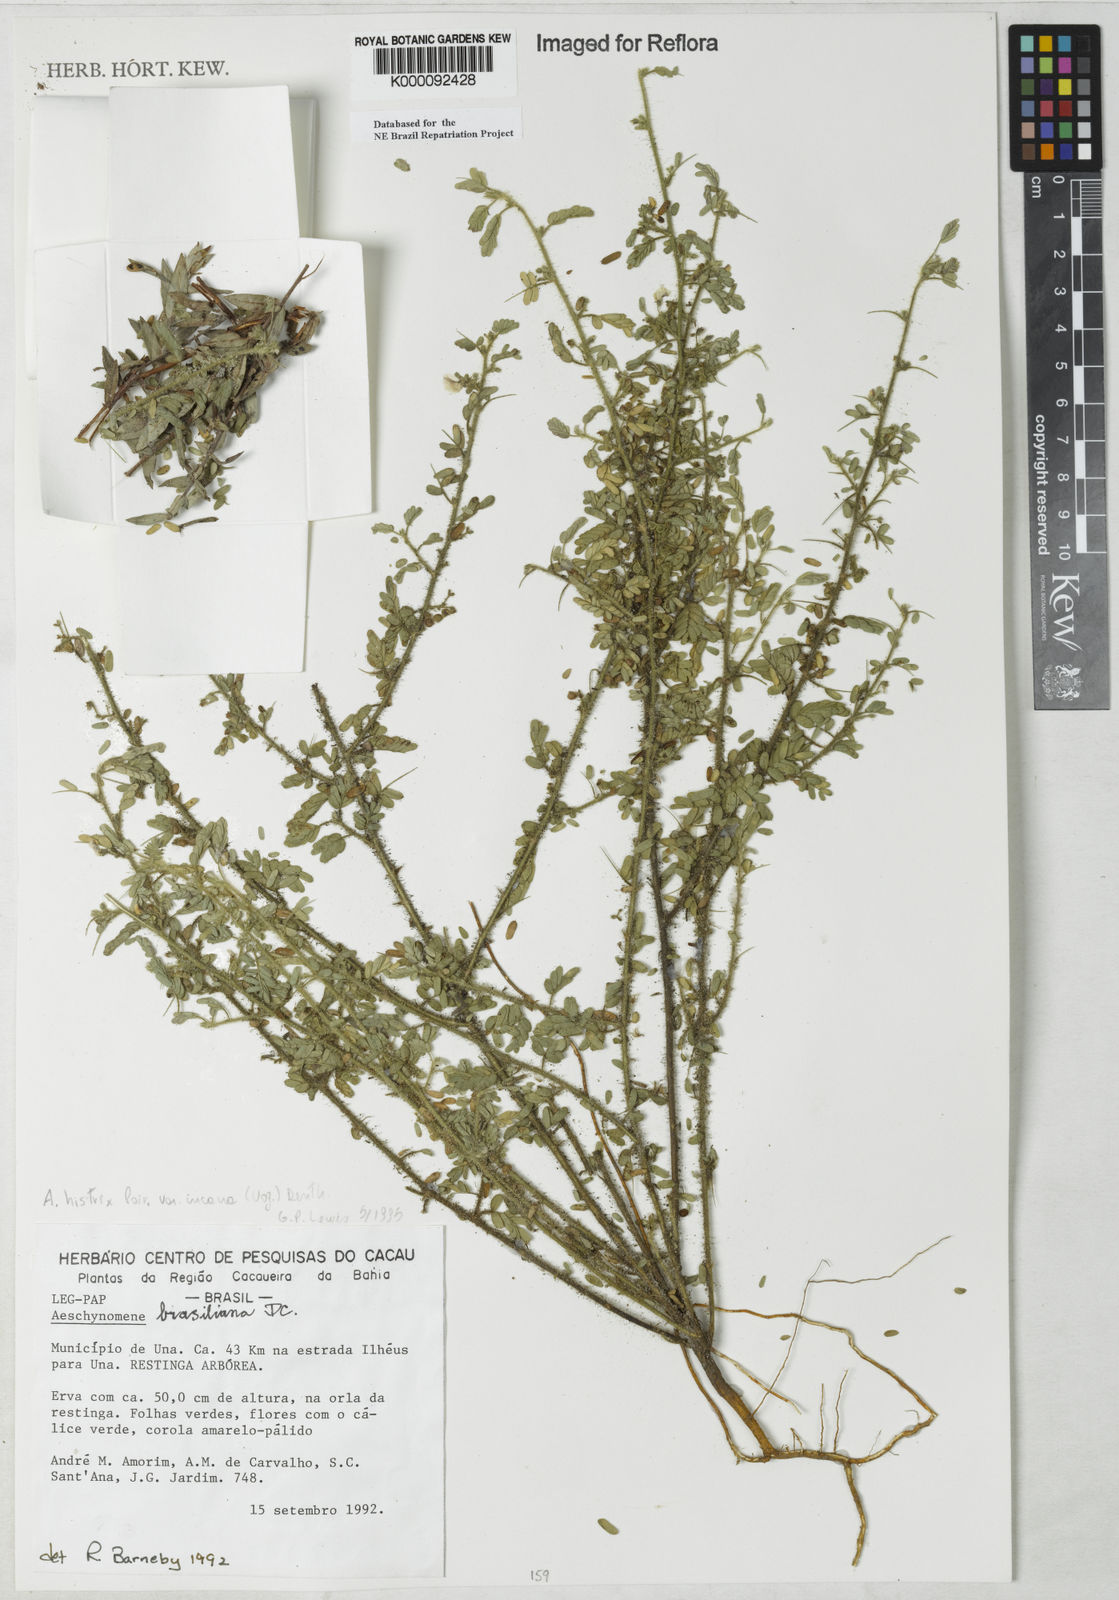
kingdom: Plantae
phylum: Tracheophyta
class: Magnoliopsida
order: Fabales
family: Fabaceae
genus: Ctenodon
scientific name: Ctenodon histrix
